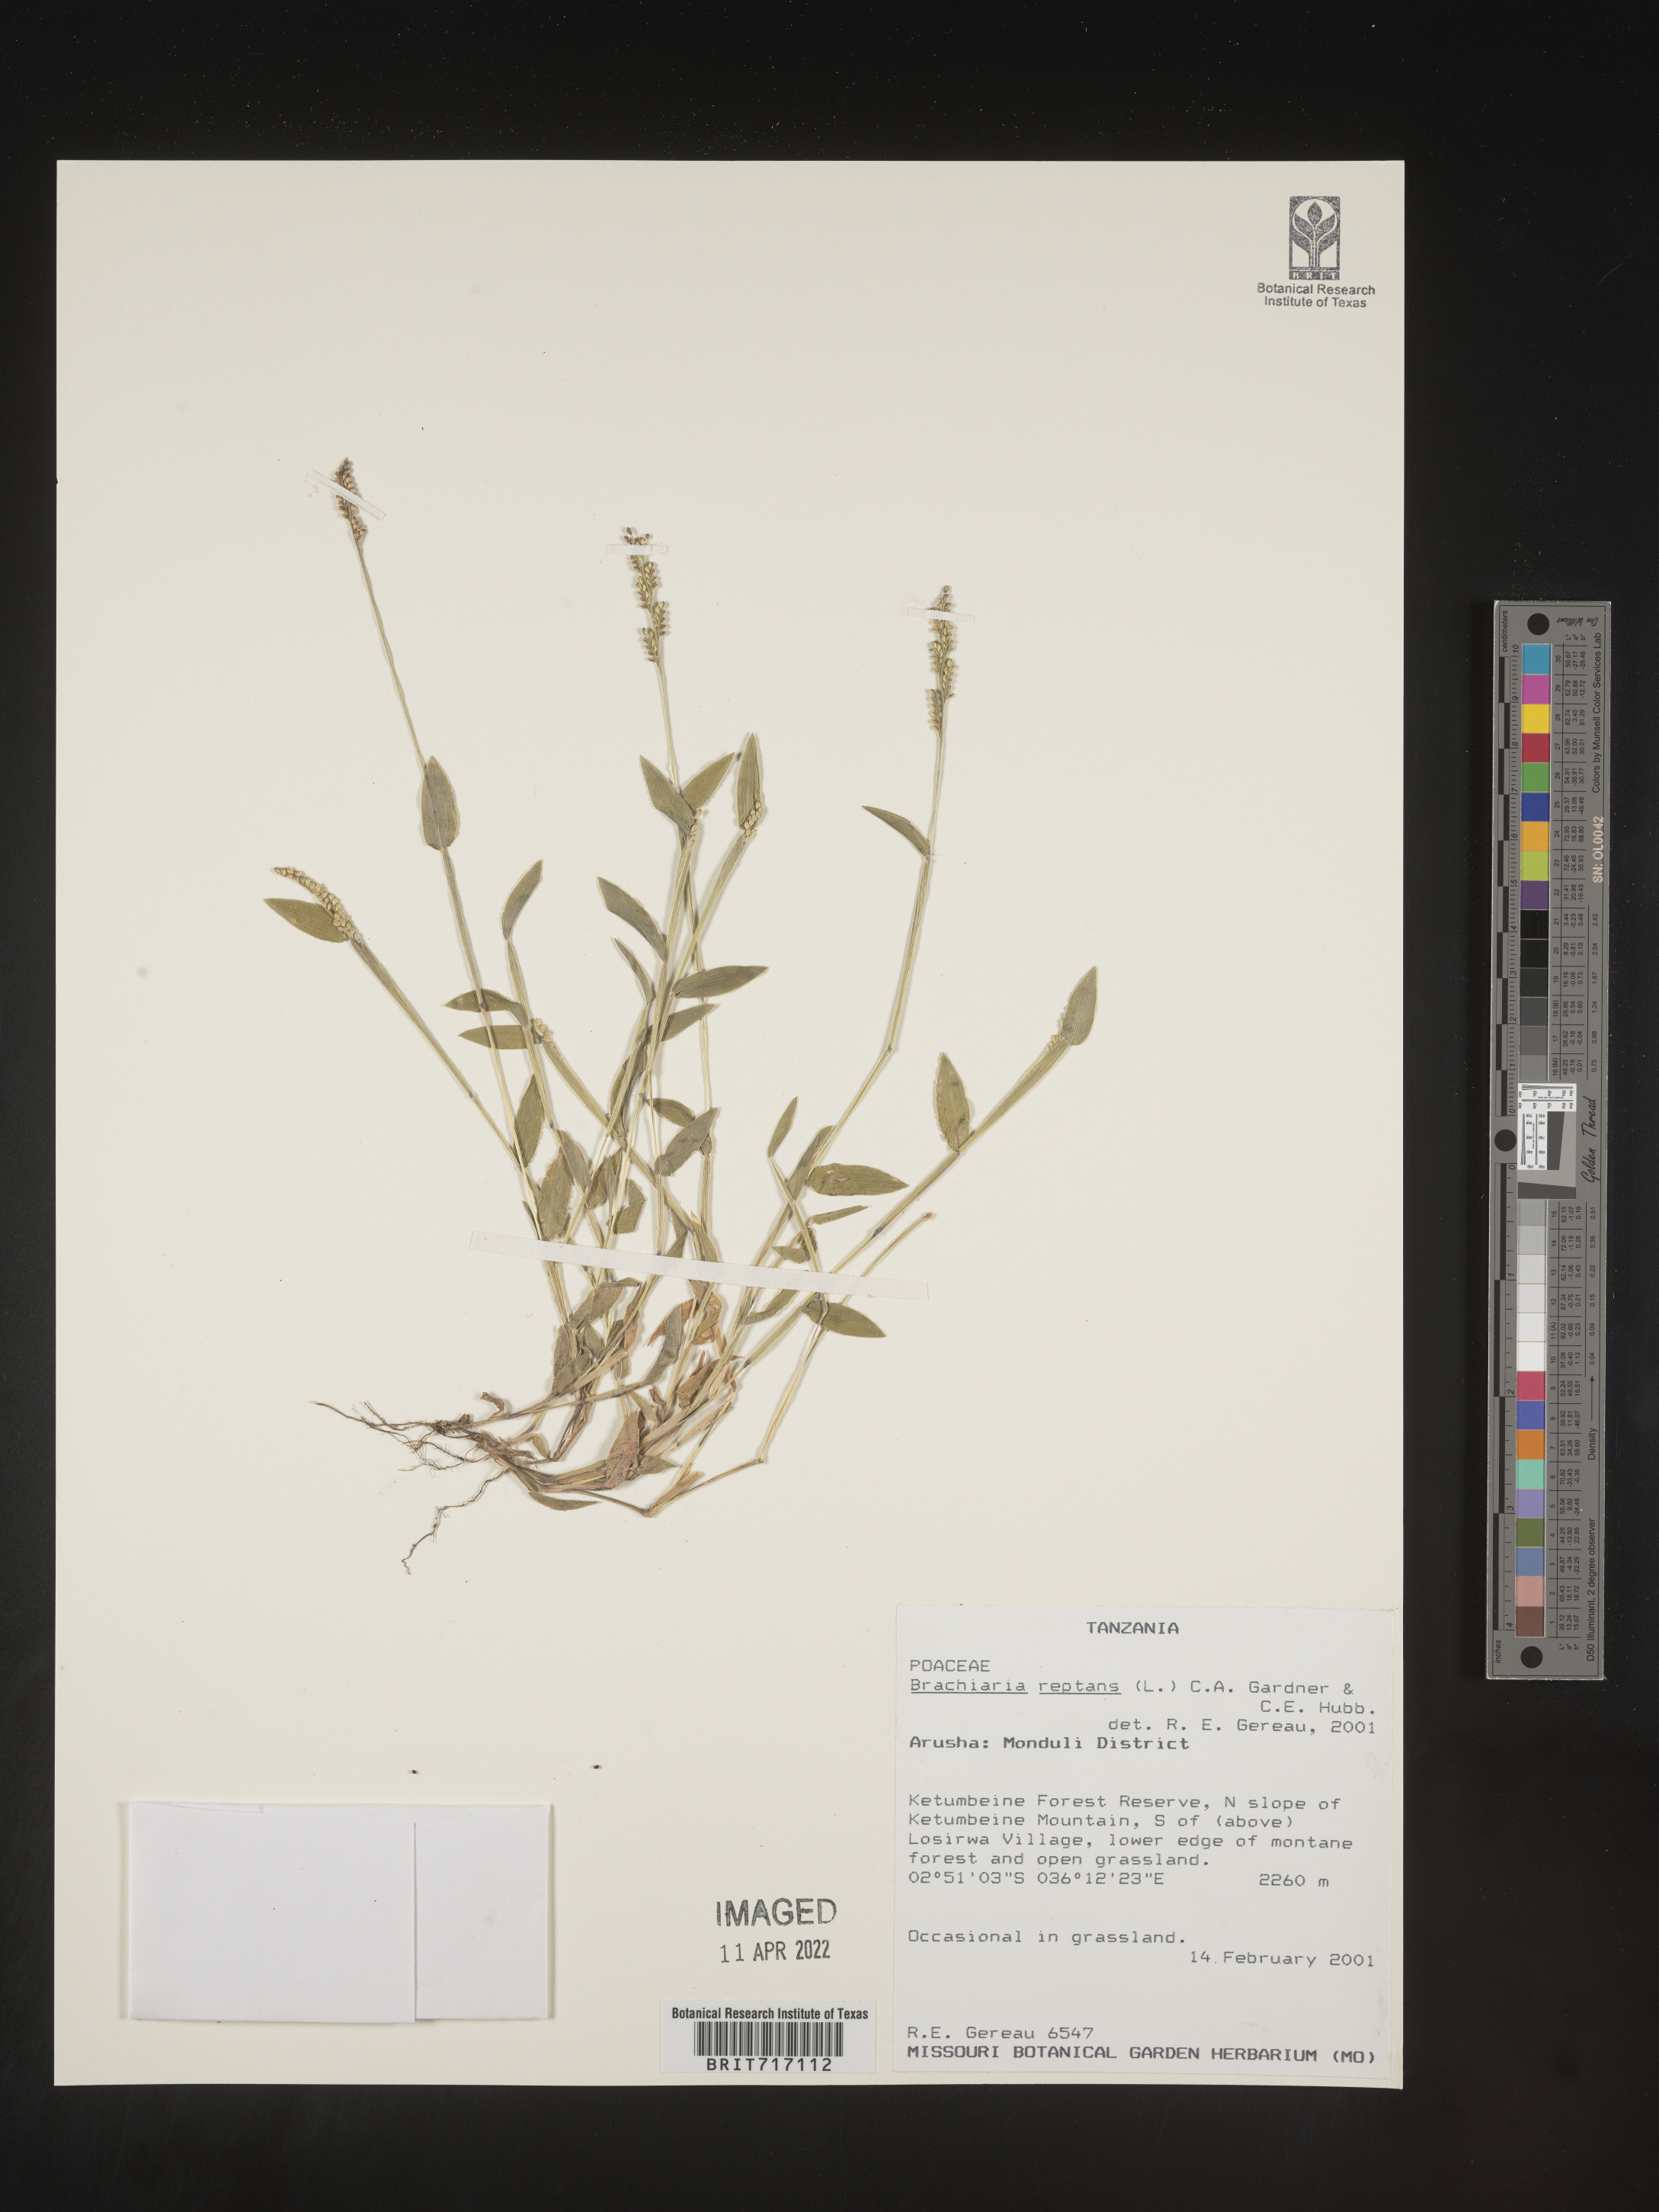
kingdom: Plantae
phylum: Tracheophyta
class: Liliopsida
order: Poales
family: Poaceae
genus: Brachiaria
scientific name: Brachiaria
